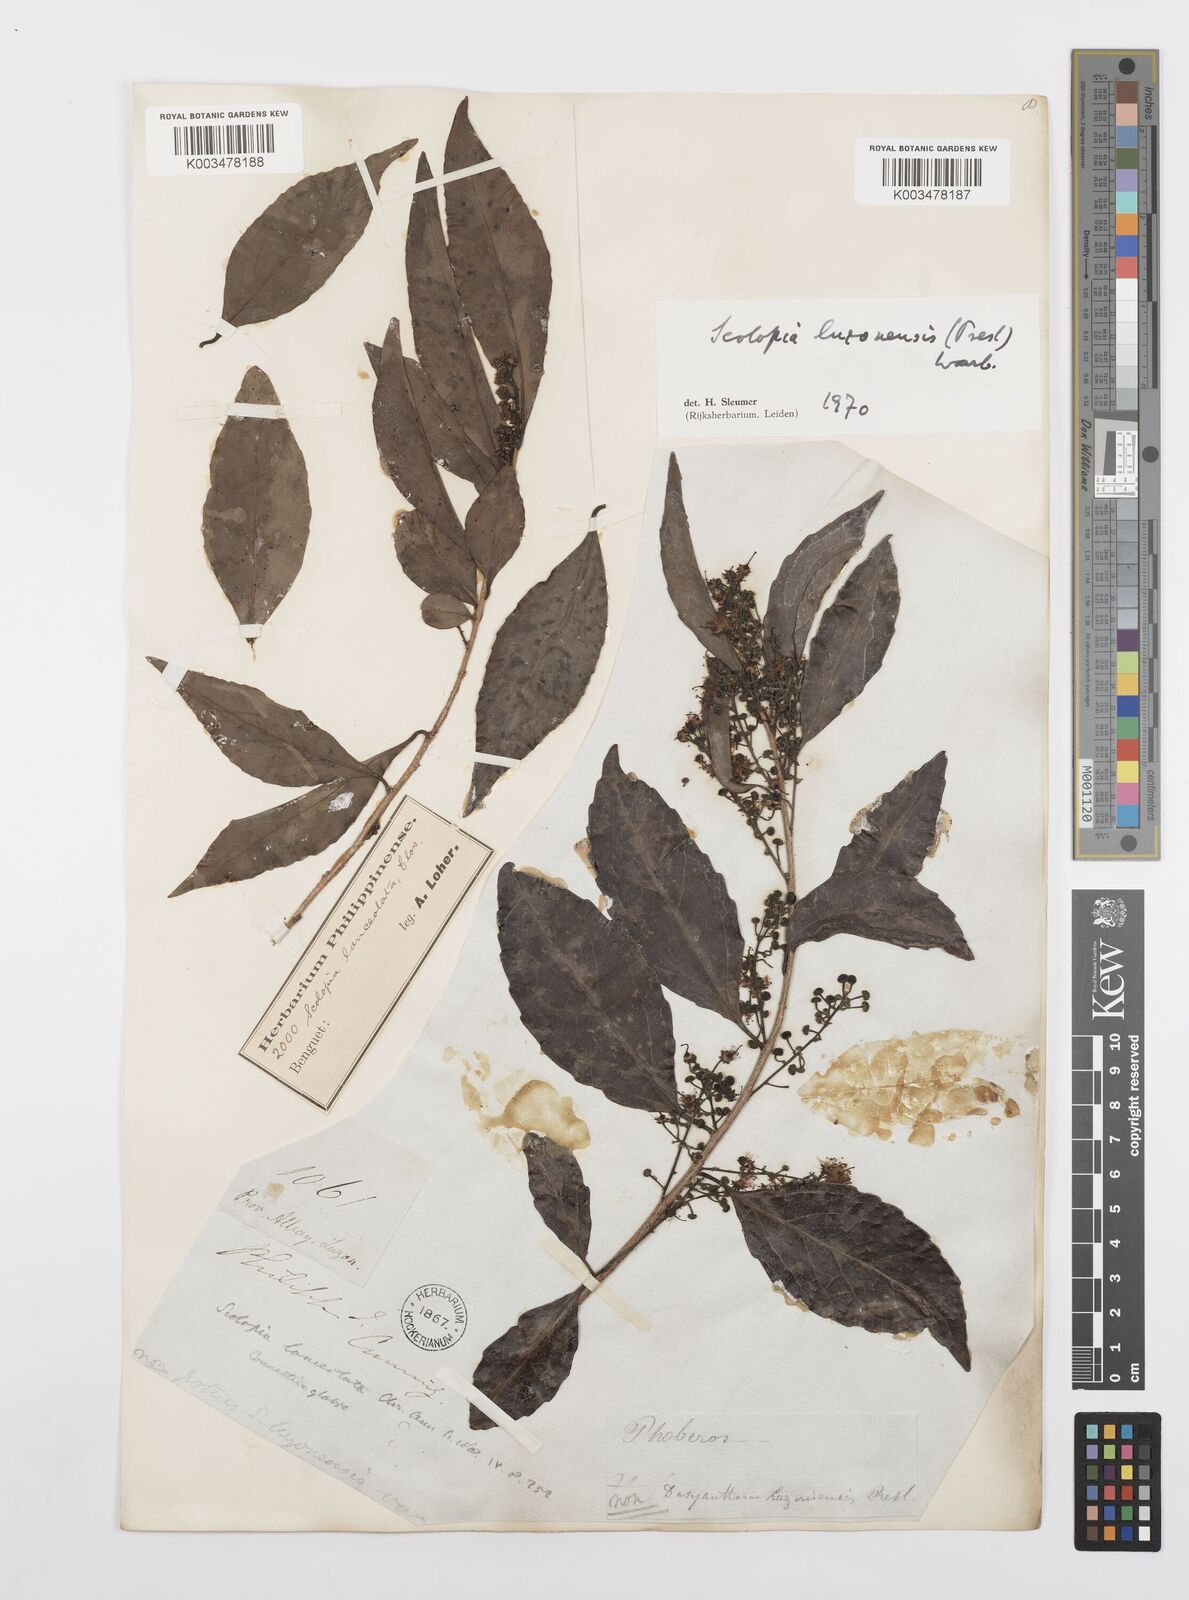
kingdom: Plantae
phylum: Tracheophyta
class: Magnoliopsida
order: Malpighiales
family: Salicaceae
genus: Scolopia
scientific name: Scolopia luzonensis
